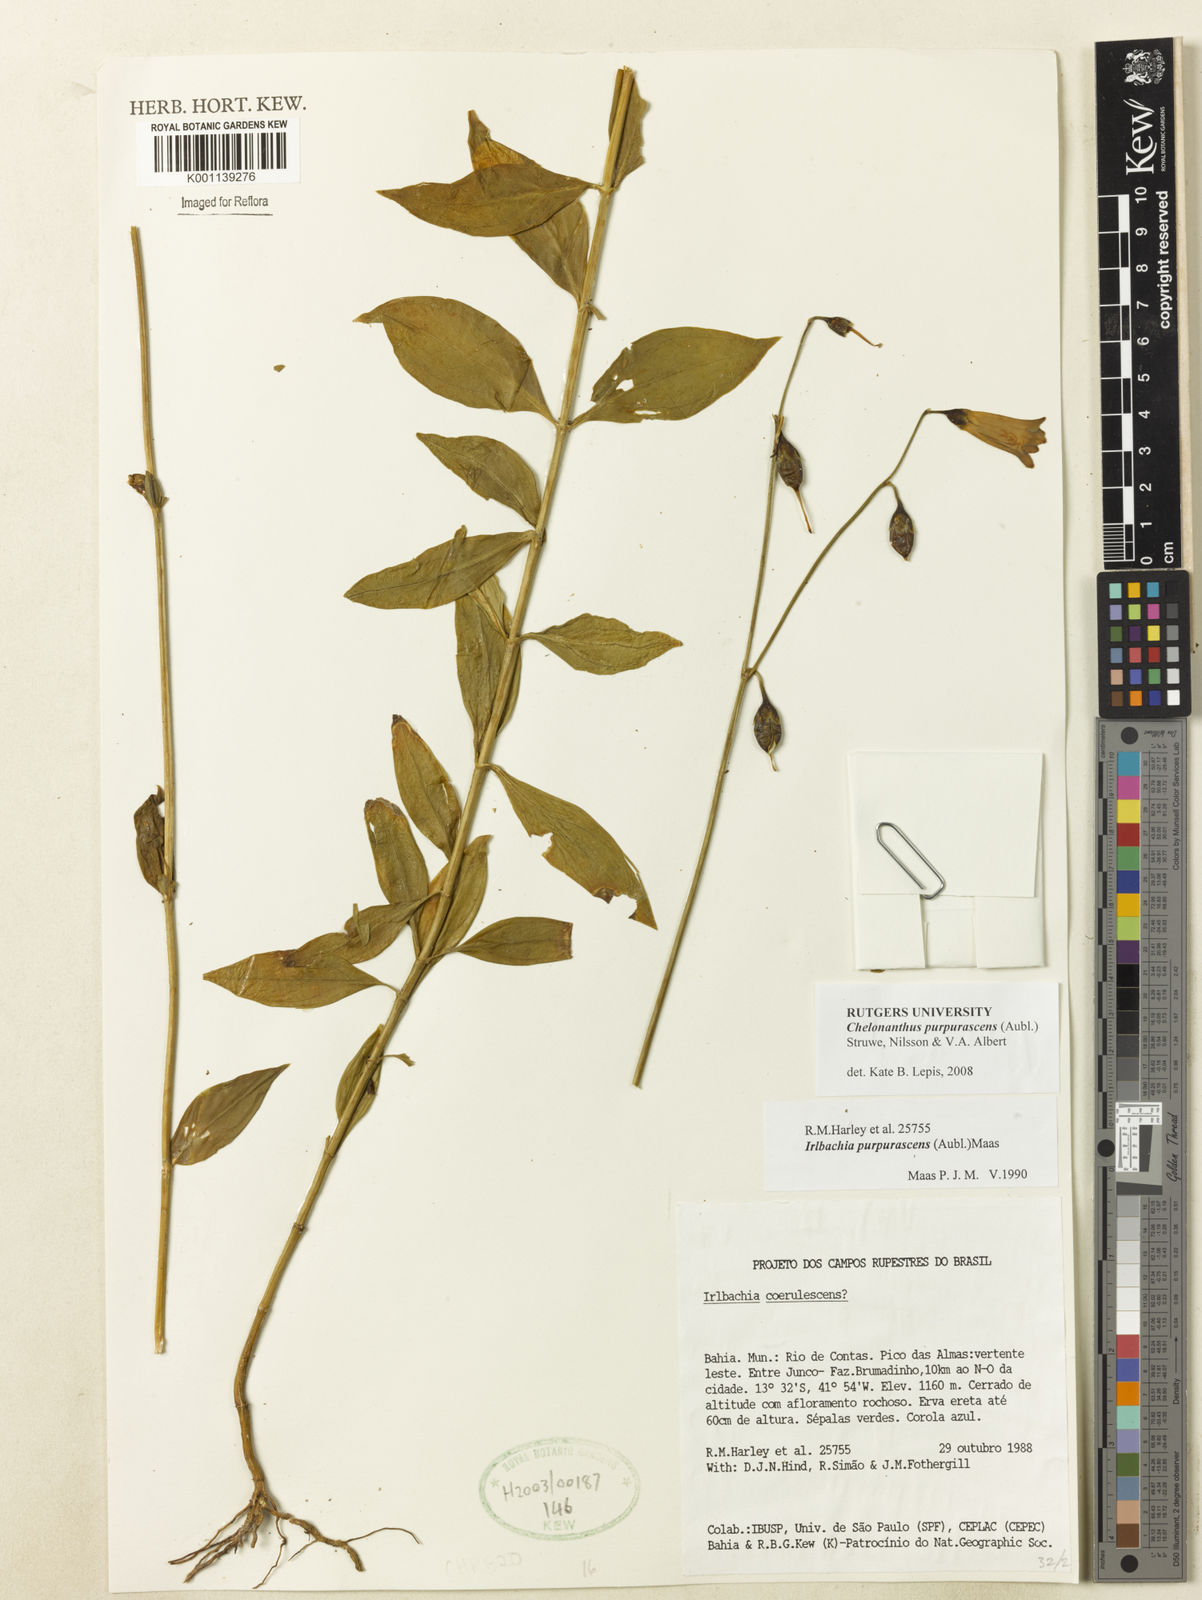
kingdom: Plantae
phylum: Tracheophyta
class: Magnoliopsida
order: Gentianales
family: Gentianaceae
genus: Chelonanthus
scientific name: Chelonanthus purpurascens
